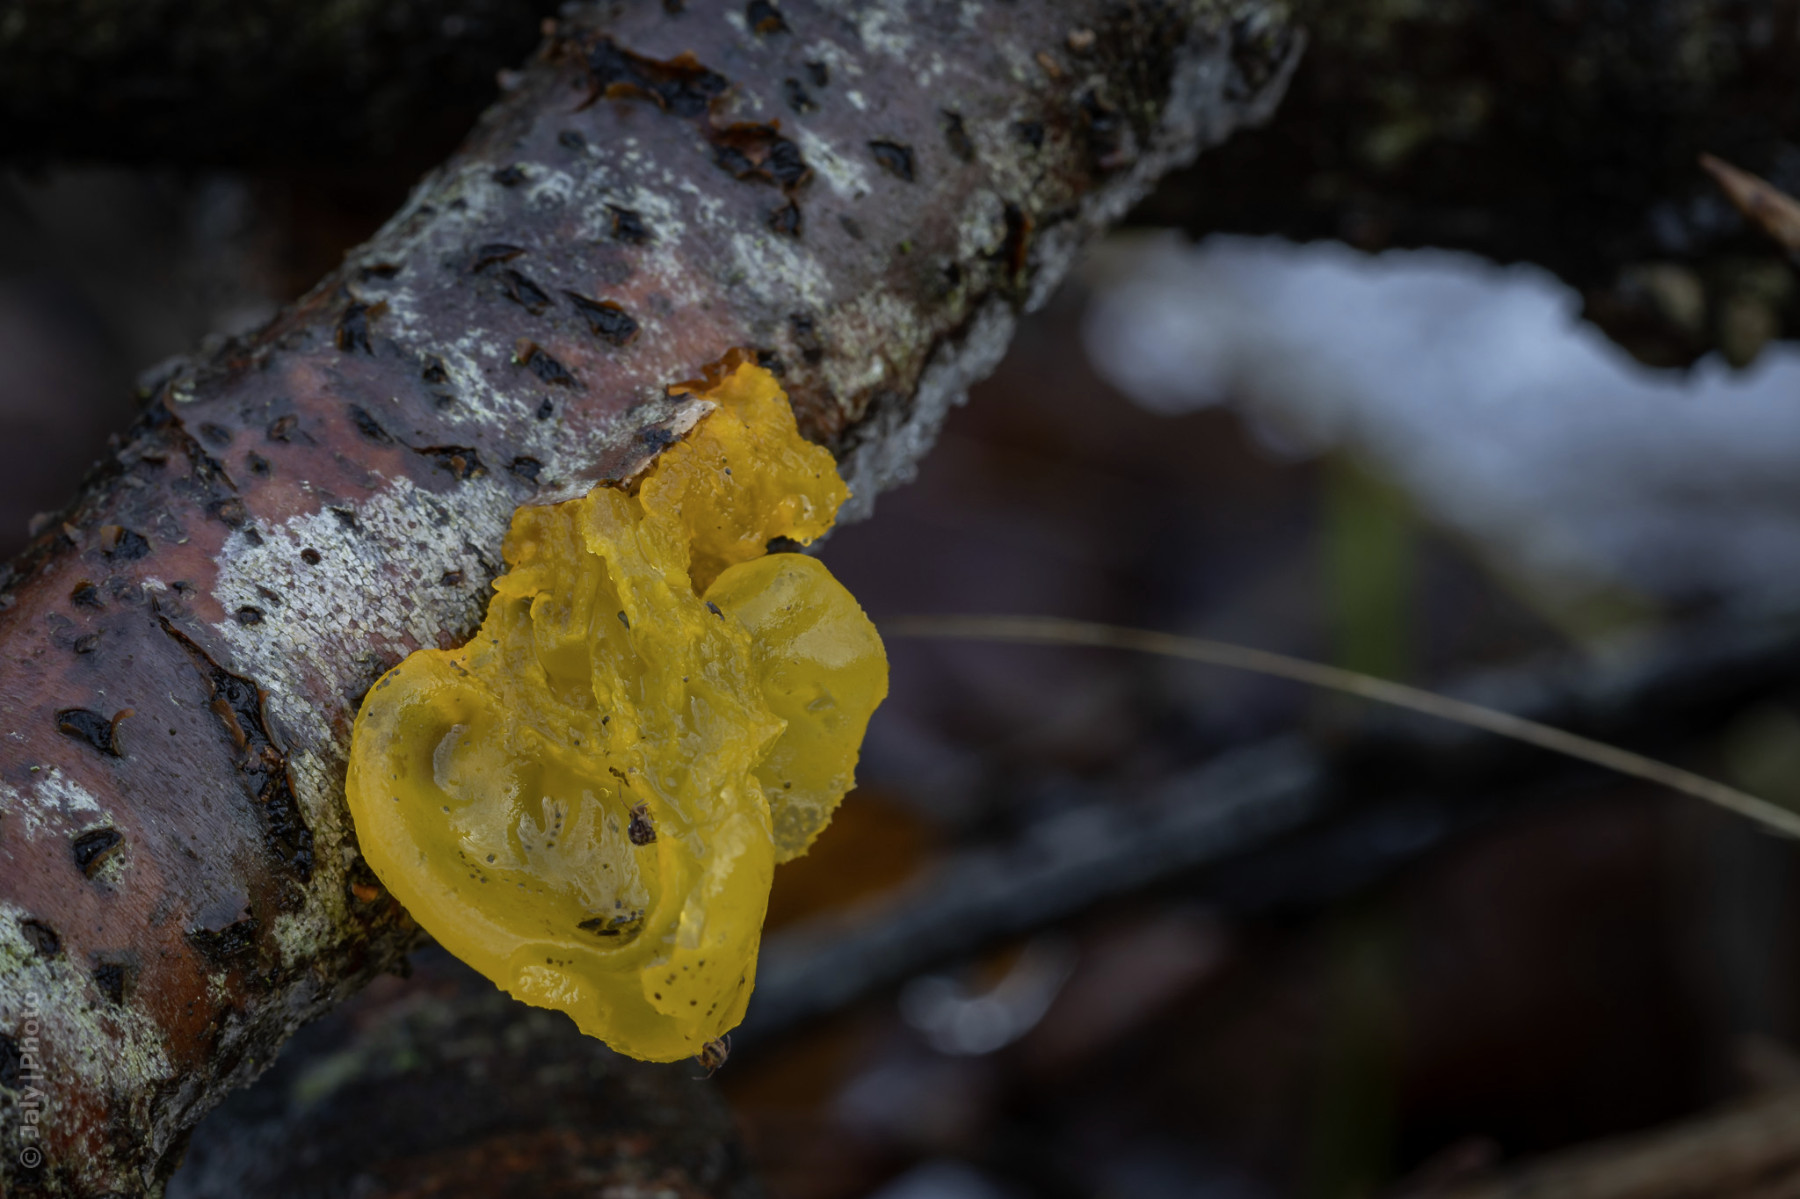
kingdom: Fungi
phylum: Basidiomycota
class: Tremellomycetes
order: Tremellales
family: Tremellaceae
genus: Tremella
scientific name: Tremella mesenterica
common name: gul bævresvamp
